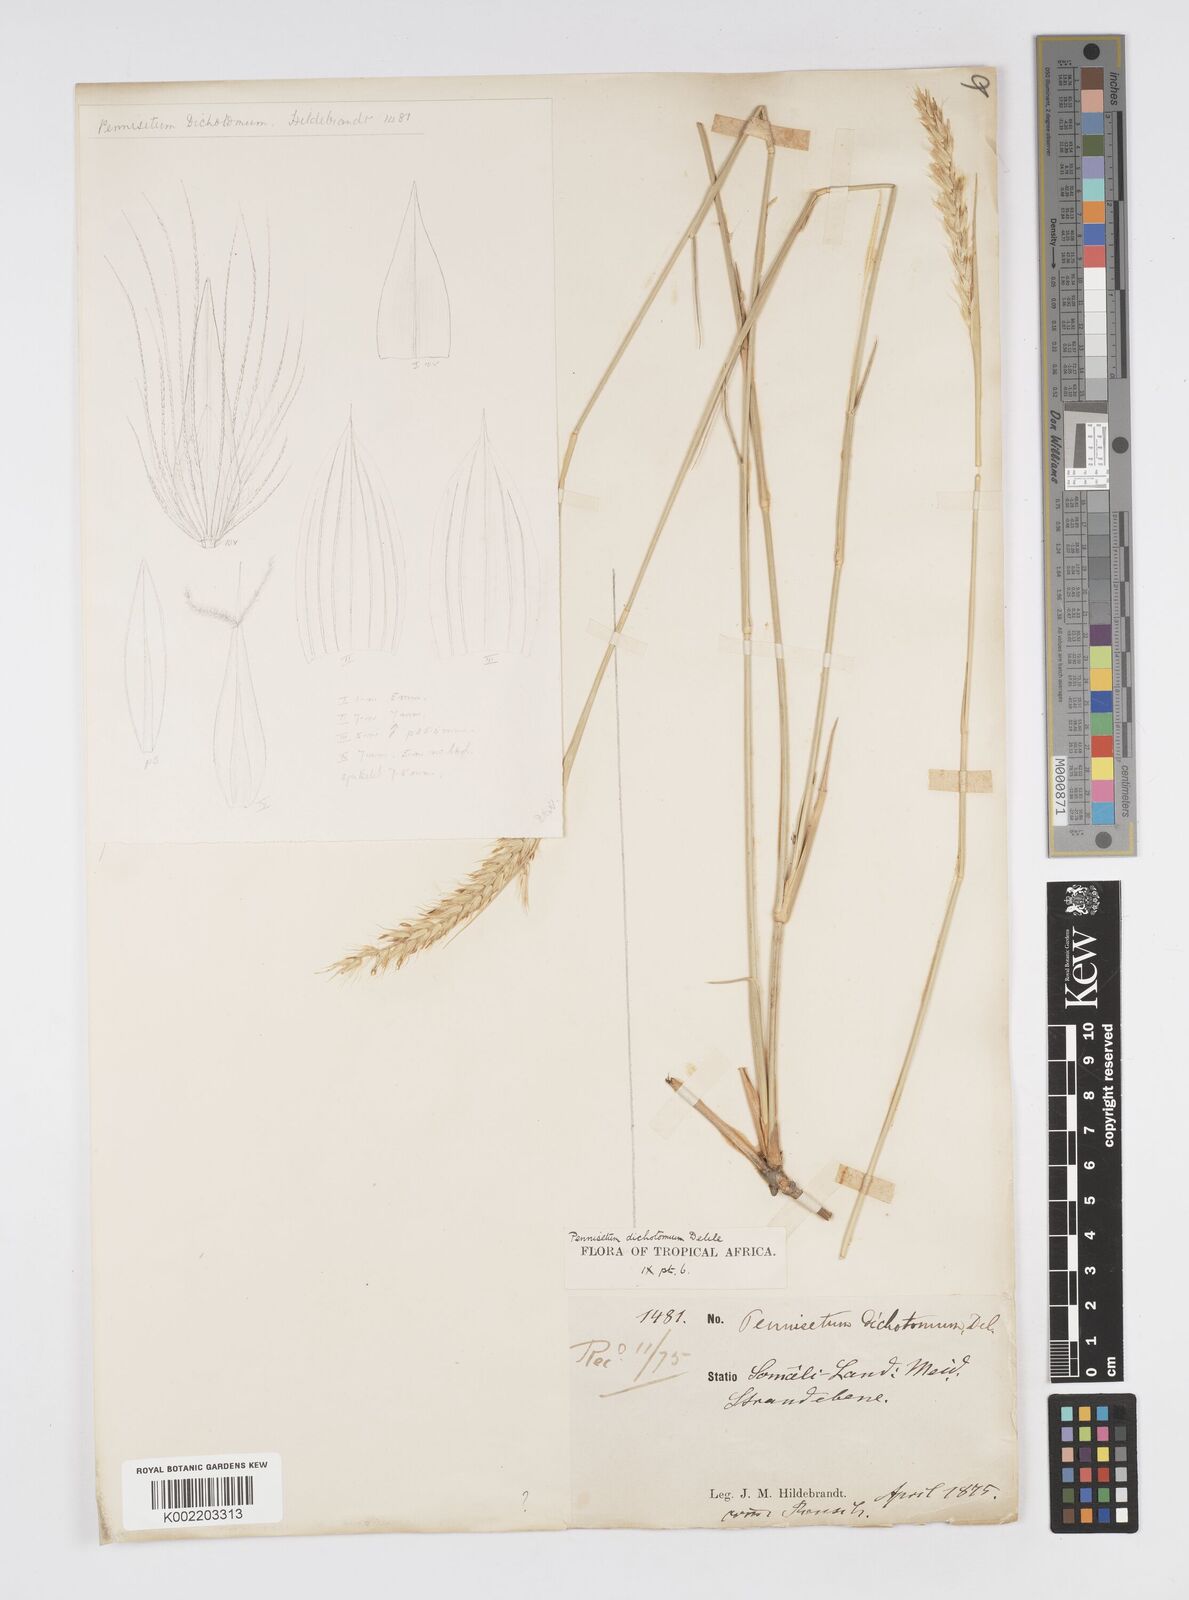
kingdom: Plantae
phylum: Tracheophyta
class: Liliopsida
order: Poales
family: Poaceae
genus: Cenchrus
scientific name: Cenchrus divisus
